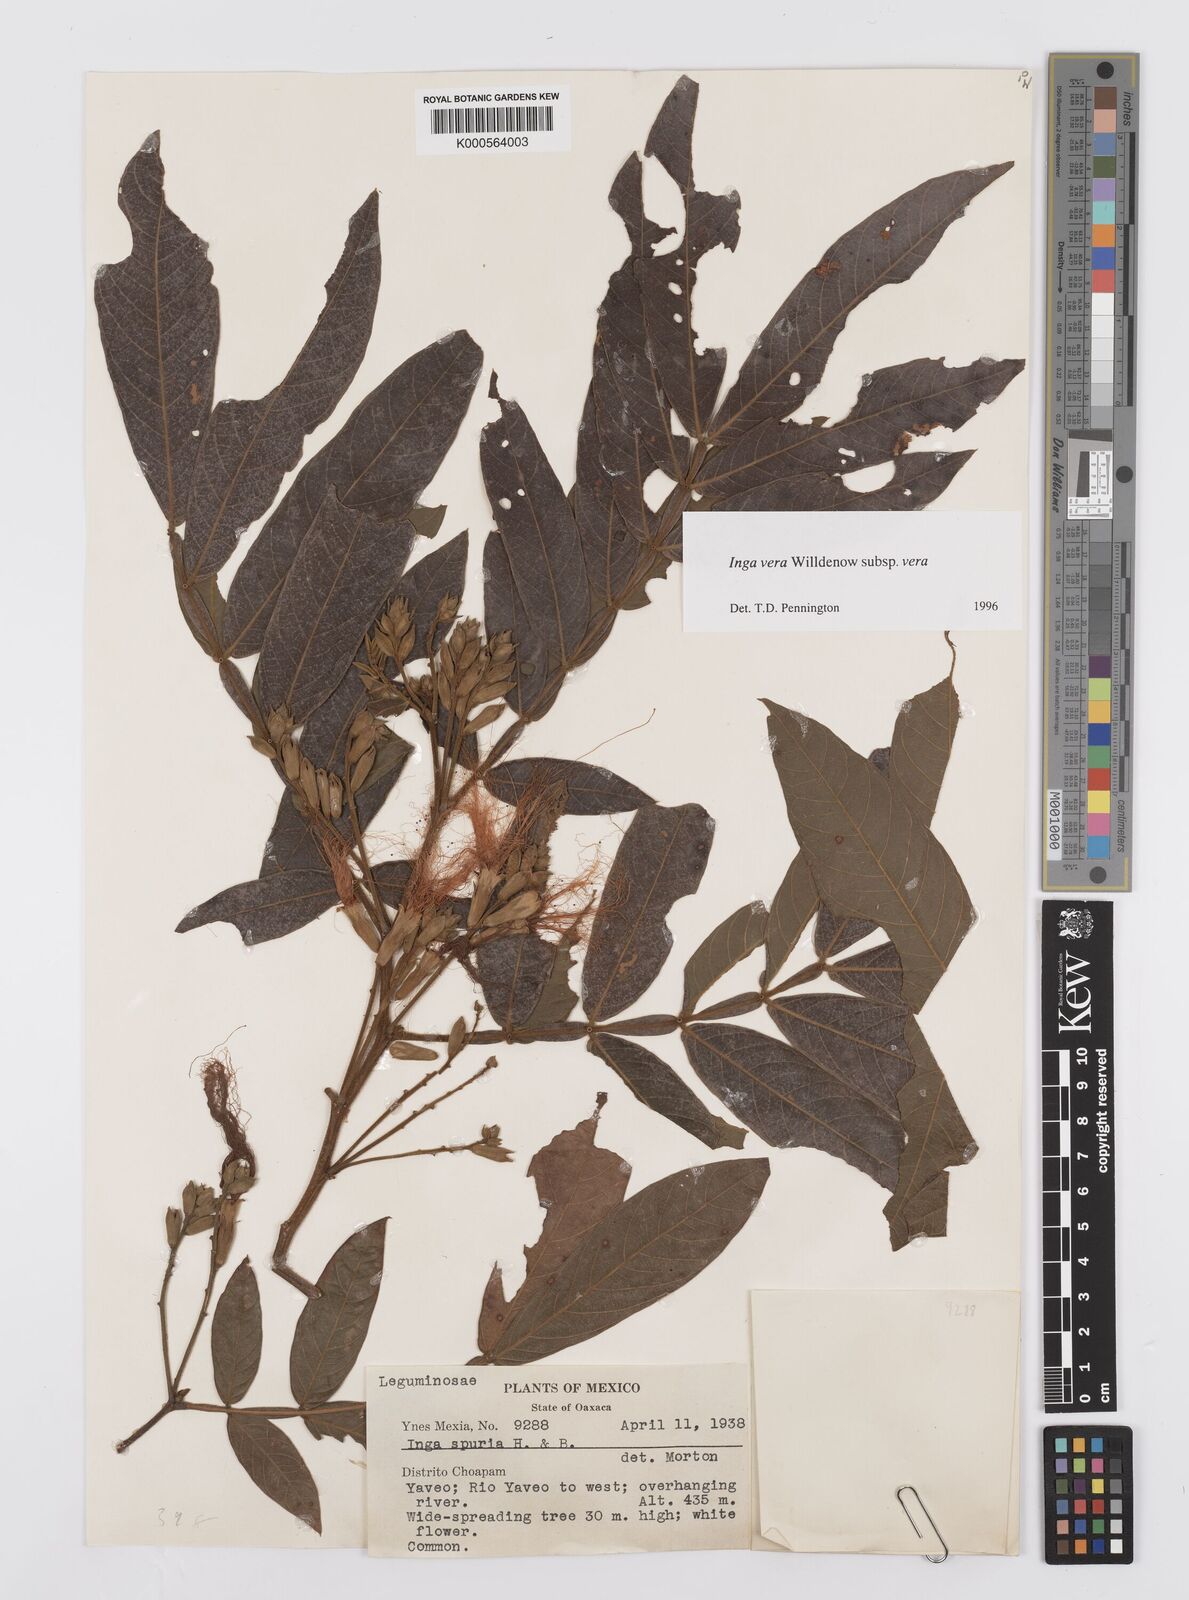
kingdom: Plantae
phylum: Tracheophyta
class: Magnoliopsida
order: Fabales
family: Fabaceae
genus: Inga
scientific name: Inga vera
